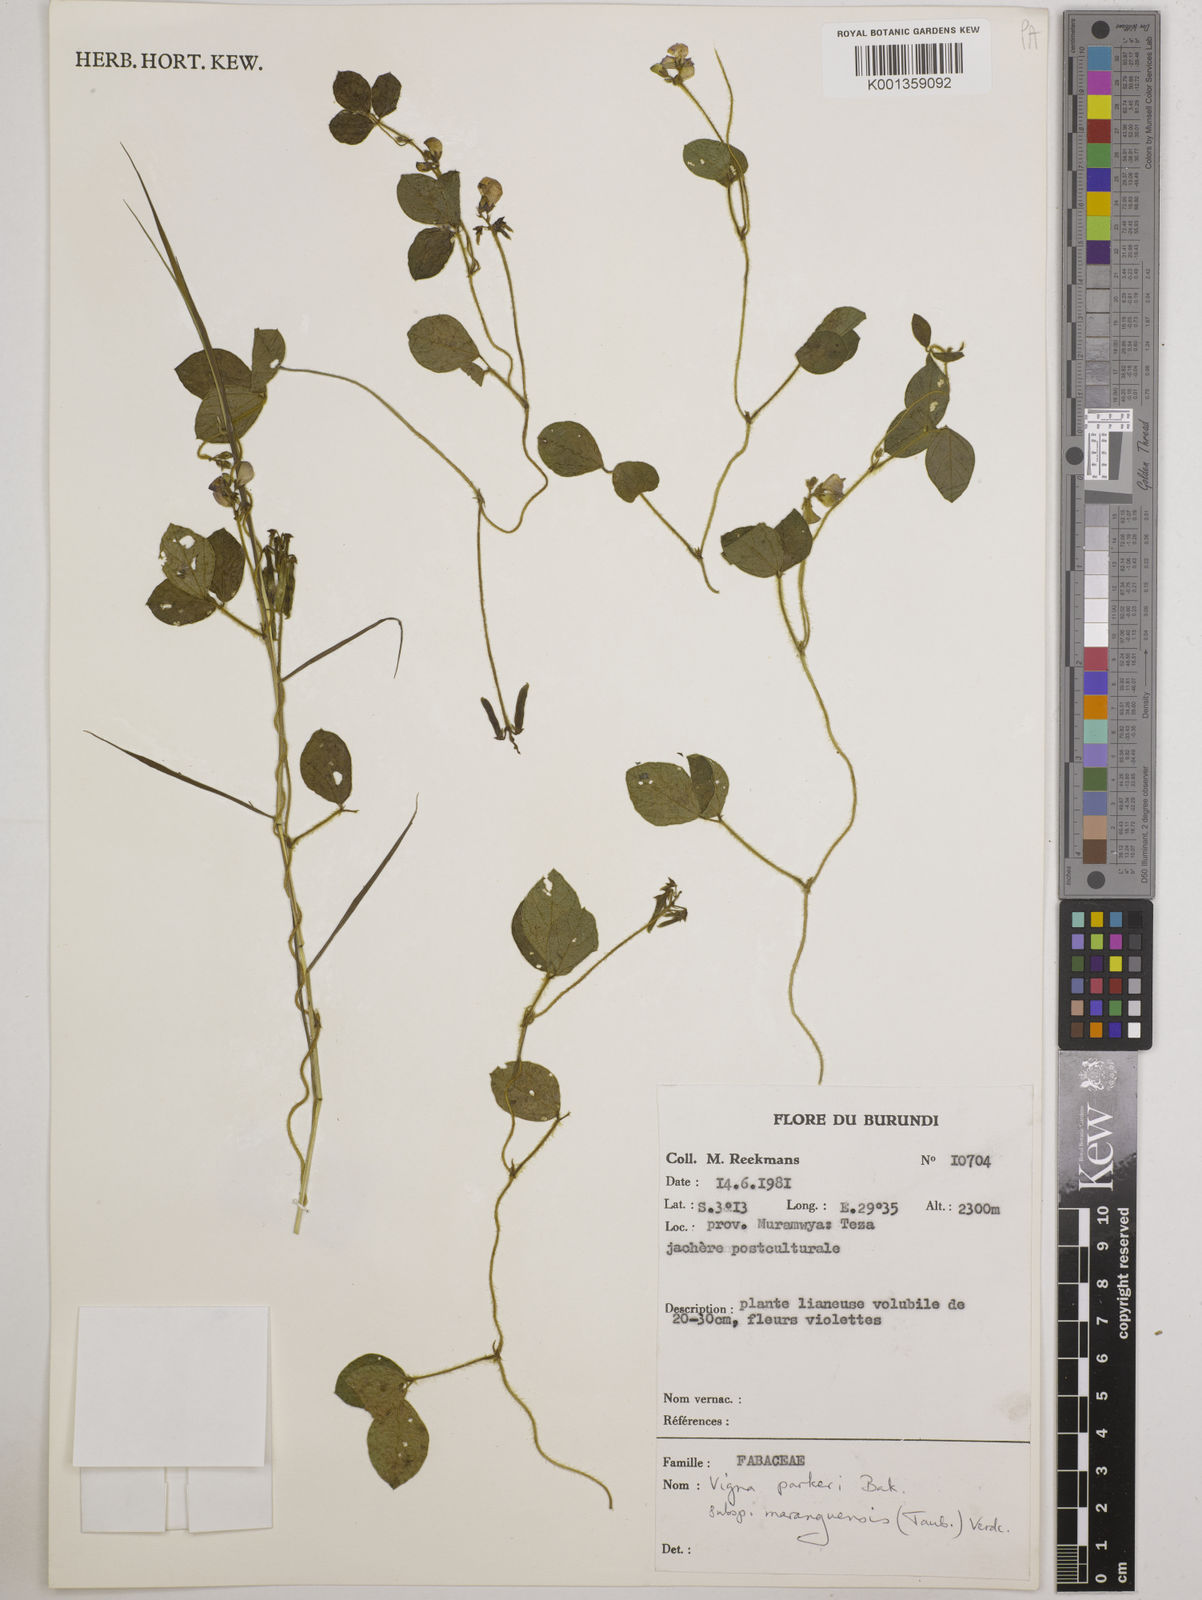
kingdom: Plantae
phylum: Tracheophyta
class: Magnoliopsida
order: Fabales
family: Fabaceae
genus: Vigna
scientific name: Vigna
